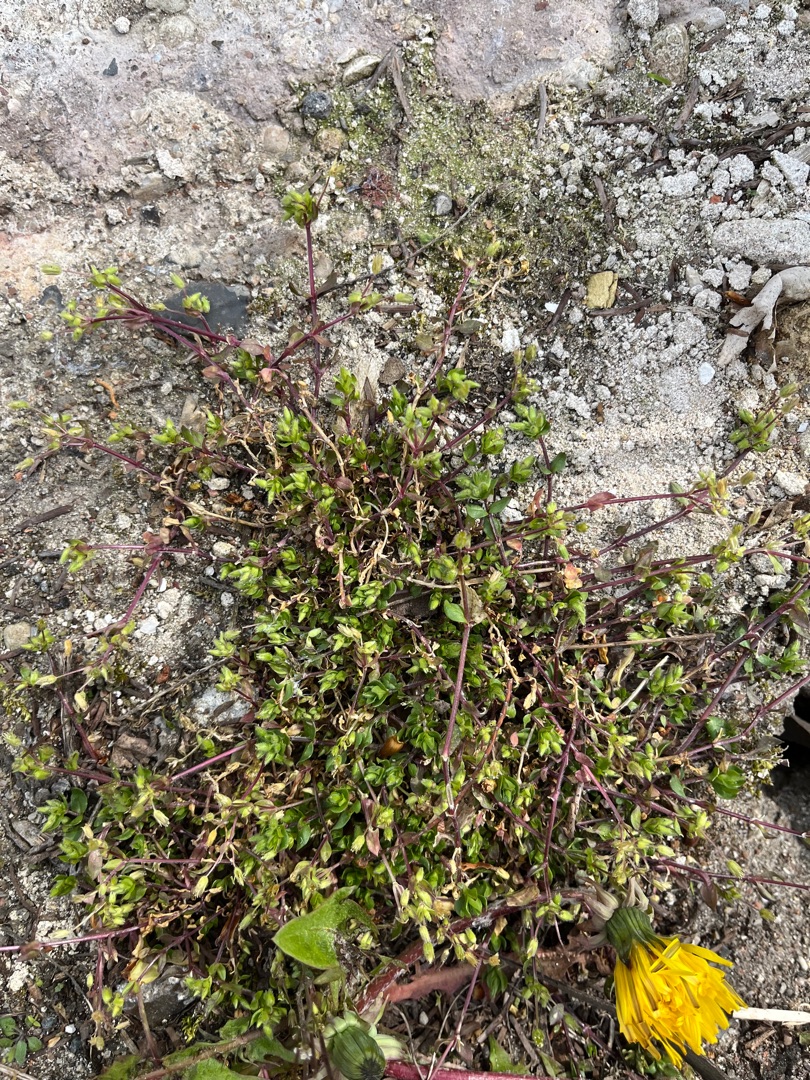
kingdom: Plantae
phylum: Tracheophyta
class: Magnoliopsida
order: Caryophyllales
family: Caryophyllaceae
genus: Stellaria
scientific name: Stellaria apetala
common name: Bleg fuglegræs
